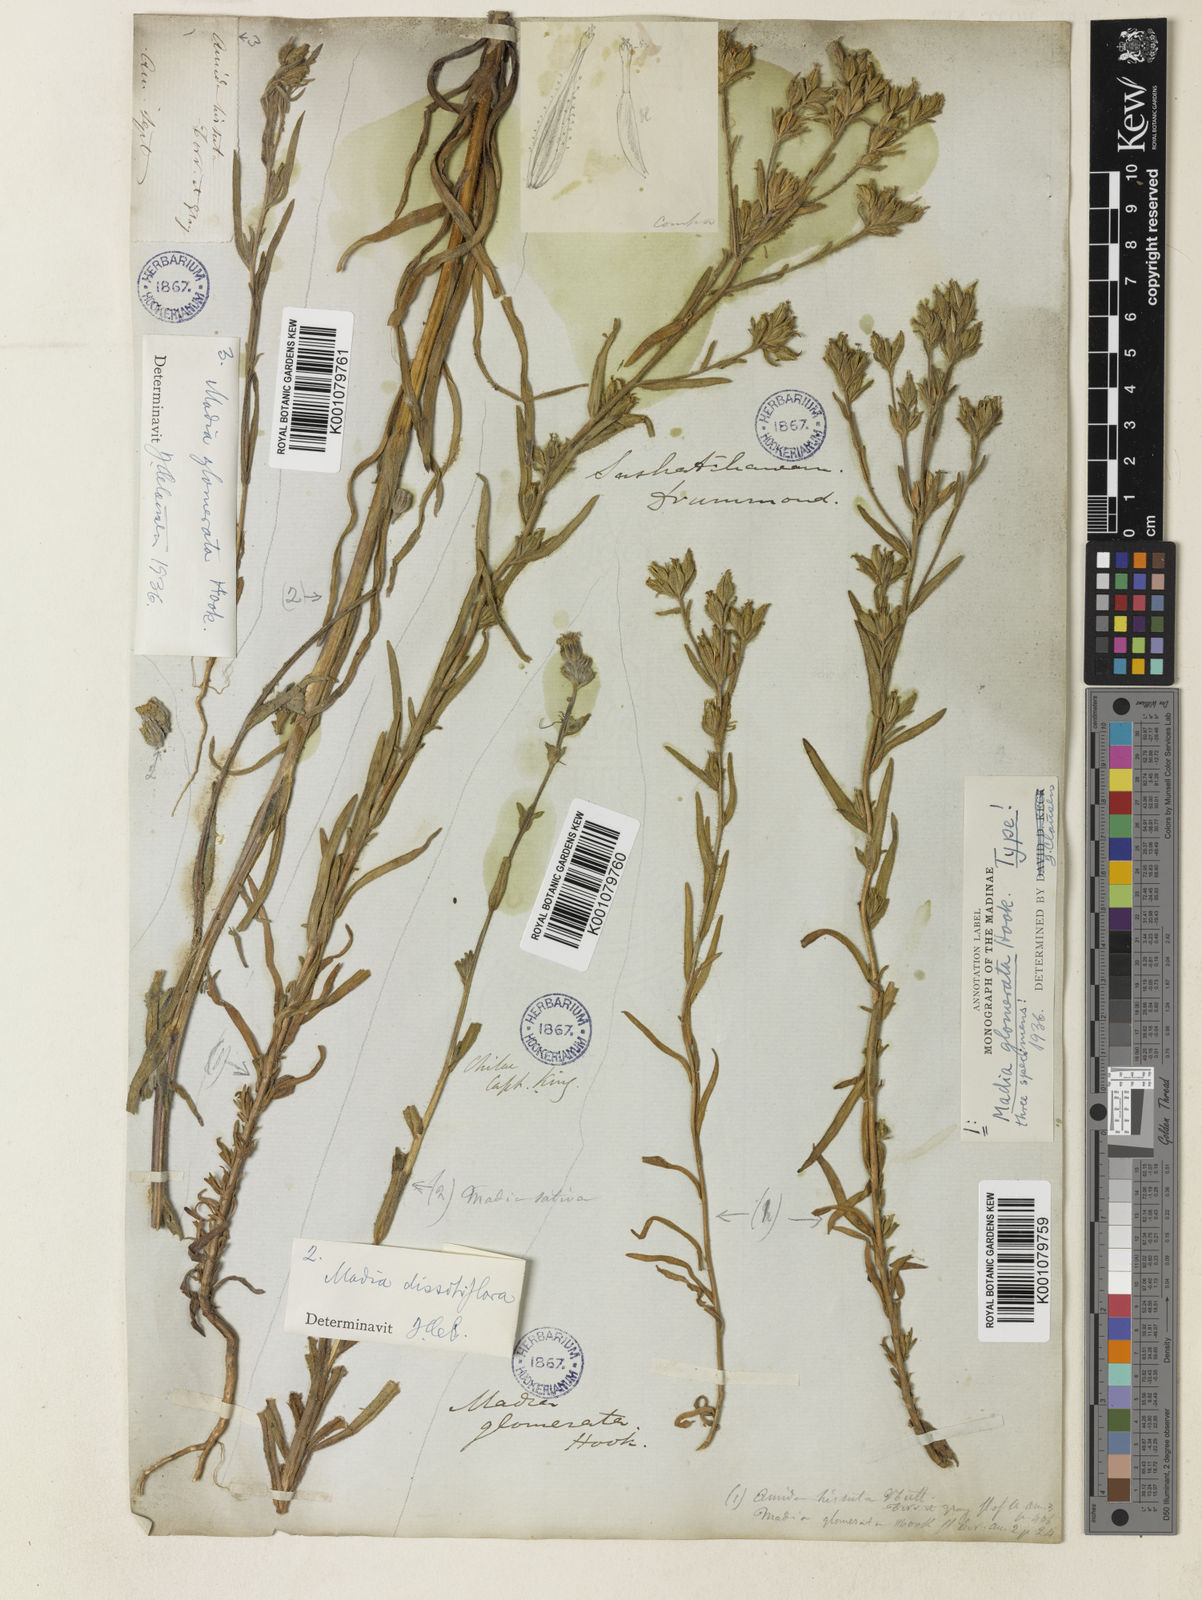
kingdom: Plantae
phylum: Tracheophyta
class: Magnoliopsida
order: Asterales
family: Asteraceae
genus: Madia
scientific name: Madia glomerata
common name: Mountain tarweed
